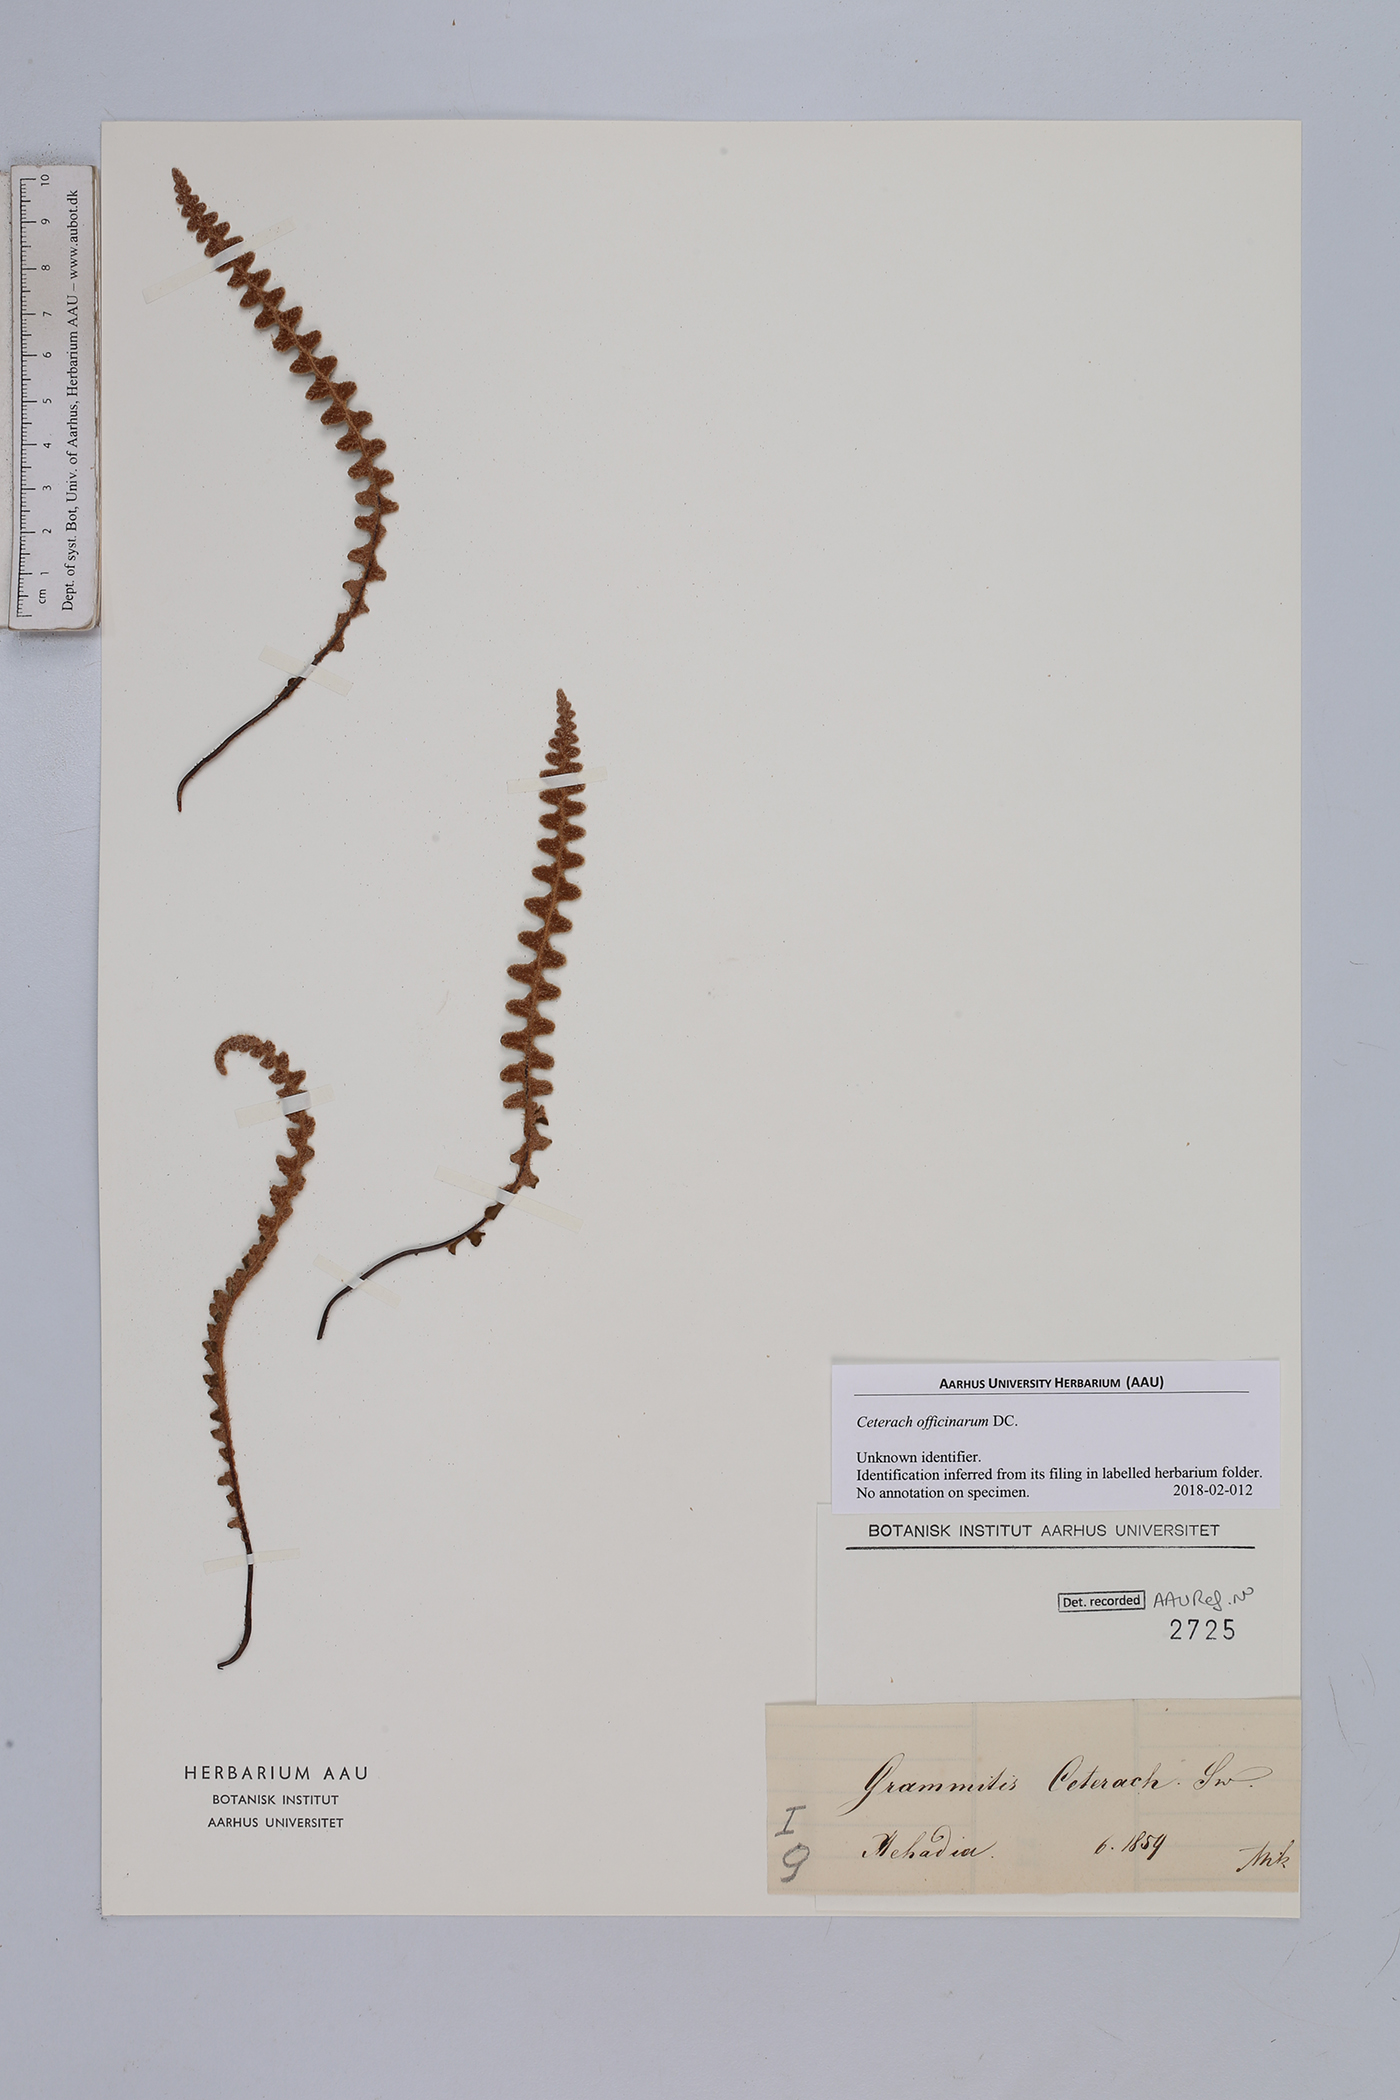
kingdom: Plantae
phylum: Tracheophyta
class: Polypodiopsida
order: Polypodiales
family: Aspleniaceae
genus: Asplenium
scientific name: Asplenium ceterach
